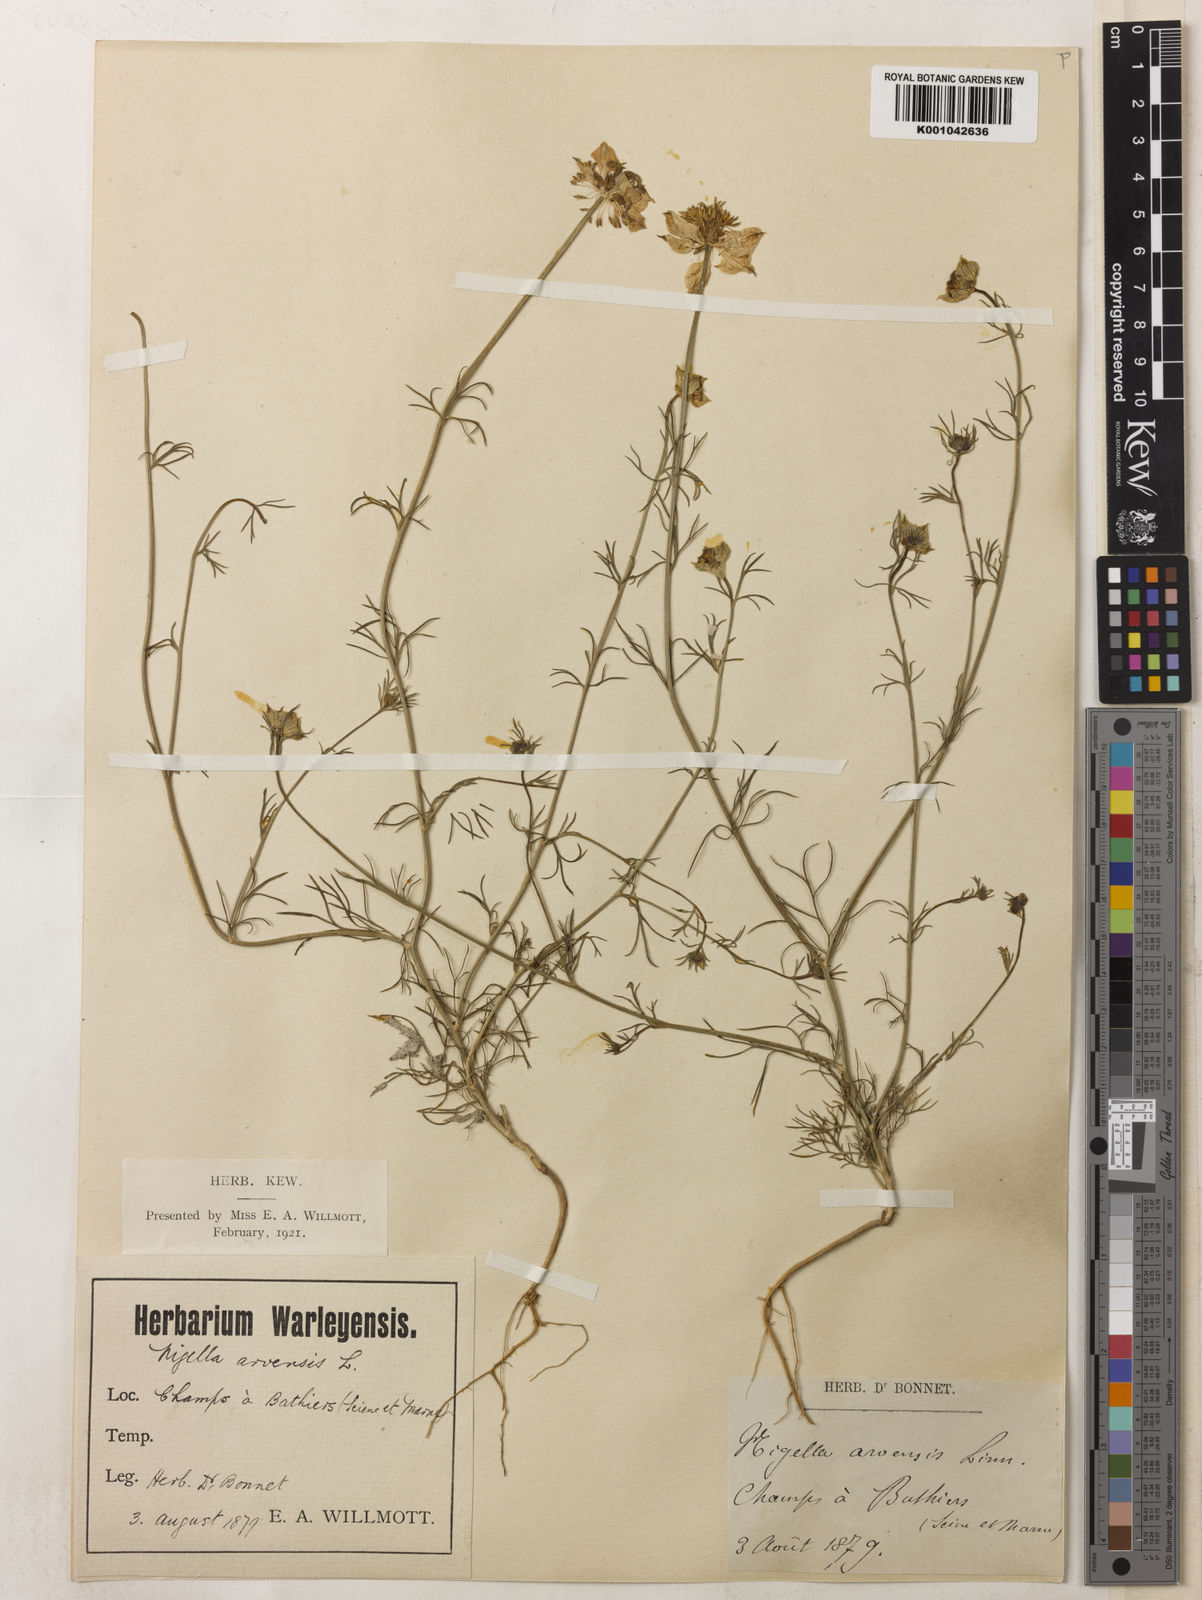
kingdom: Plantae
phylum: Tracheophyta
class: Magnoliopsida
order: Ranunculales
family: Ranunculaceae
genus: Nigella
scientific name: Nigella arvensis
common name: Wild fennel-flower
